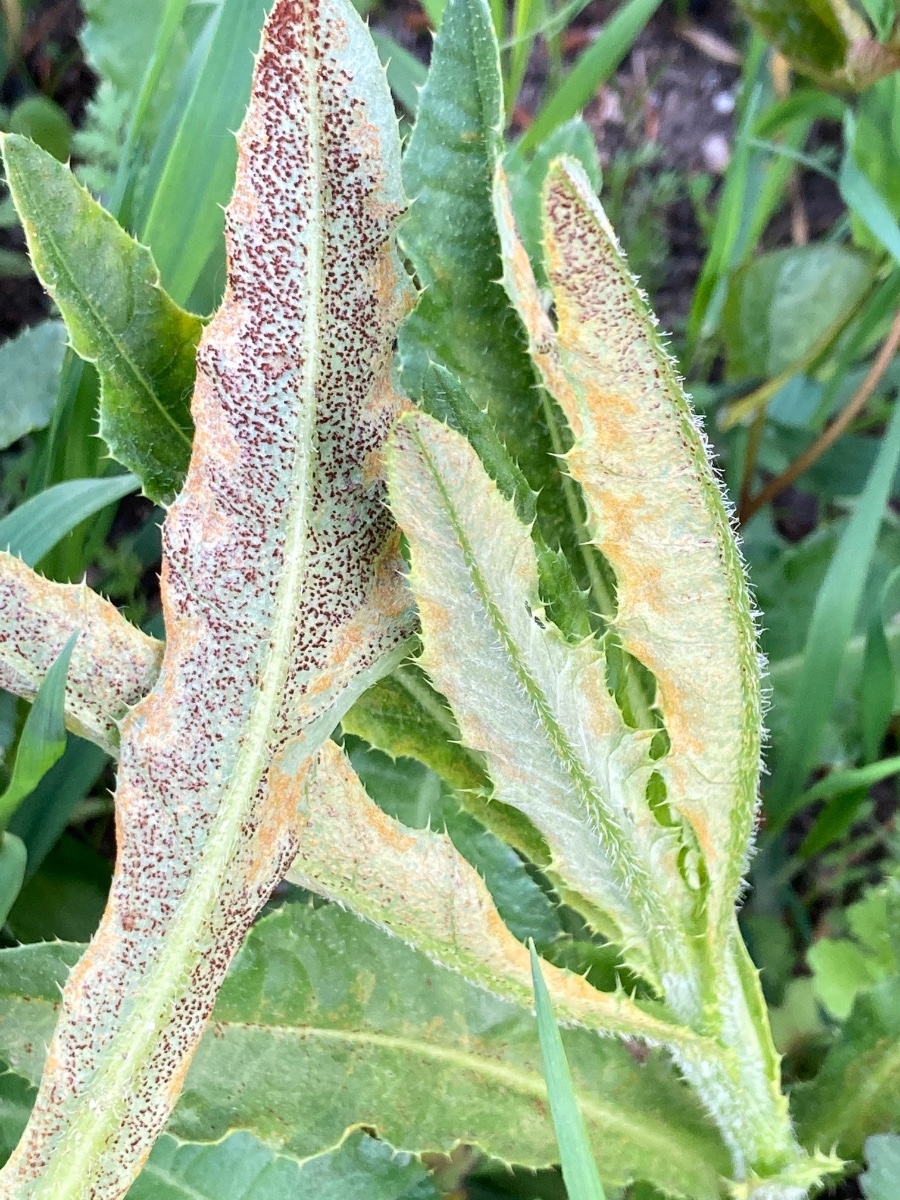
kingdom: Fungi
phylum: Basidiomycota
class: Pucciniomycetes
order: Pucciniales
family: Pucciniaceae
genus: Puccinia
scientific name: Puccinia suaveolens
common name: tidsel-tvecellerust
